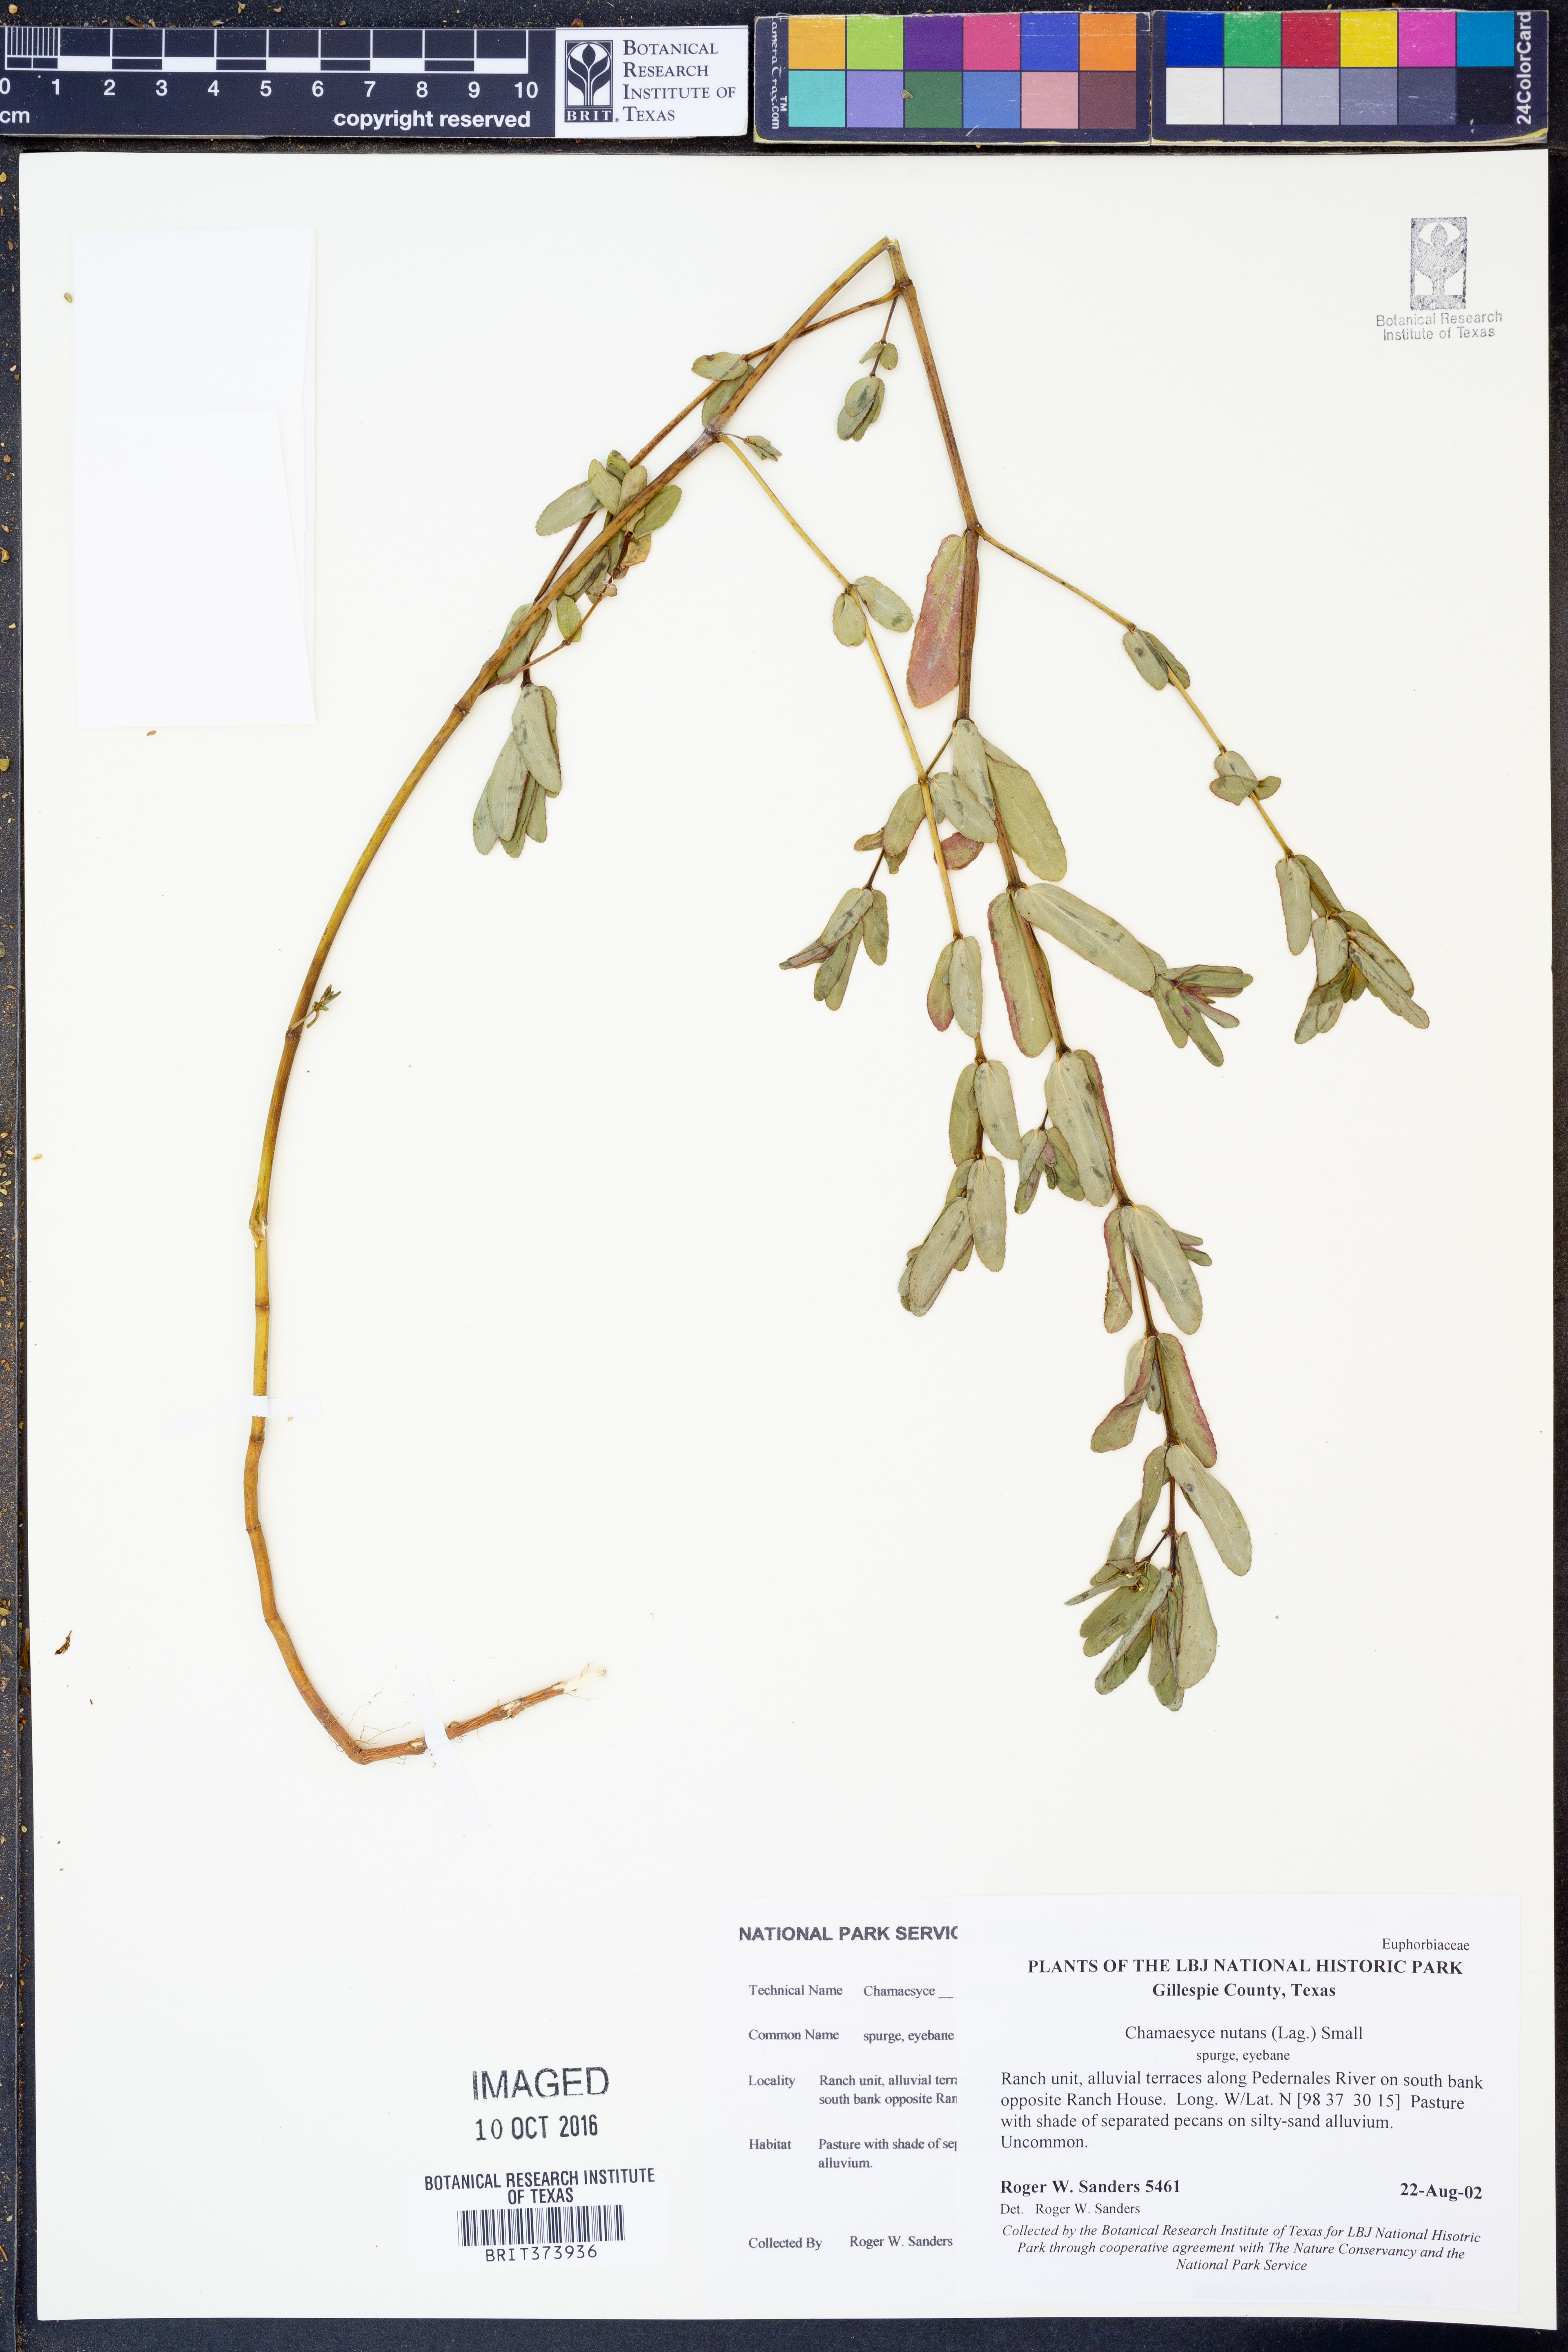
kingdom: Plantae
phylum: Tracheophyta
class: Magnoliopsida
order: Malpighiales
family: Euphorbiaceae
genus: Euphorbia
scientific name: Euphorbia nutans
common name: Eyebane
